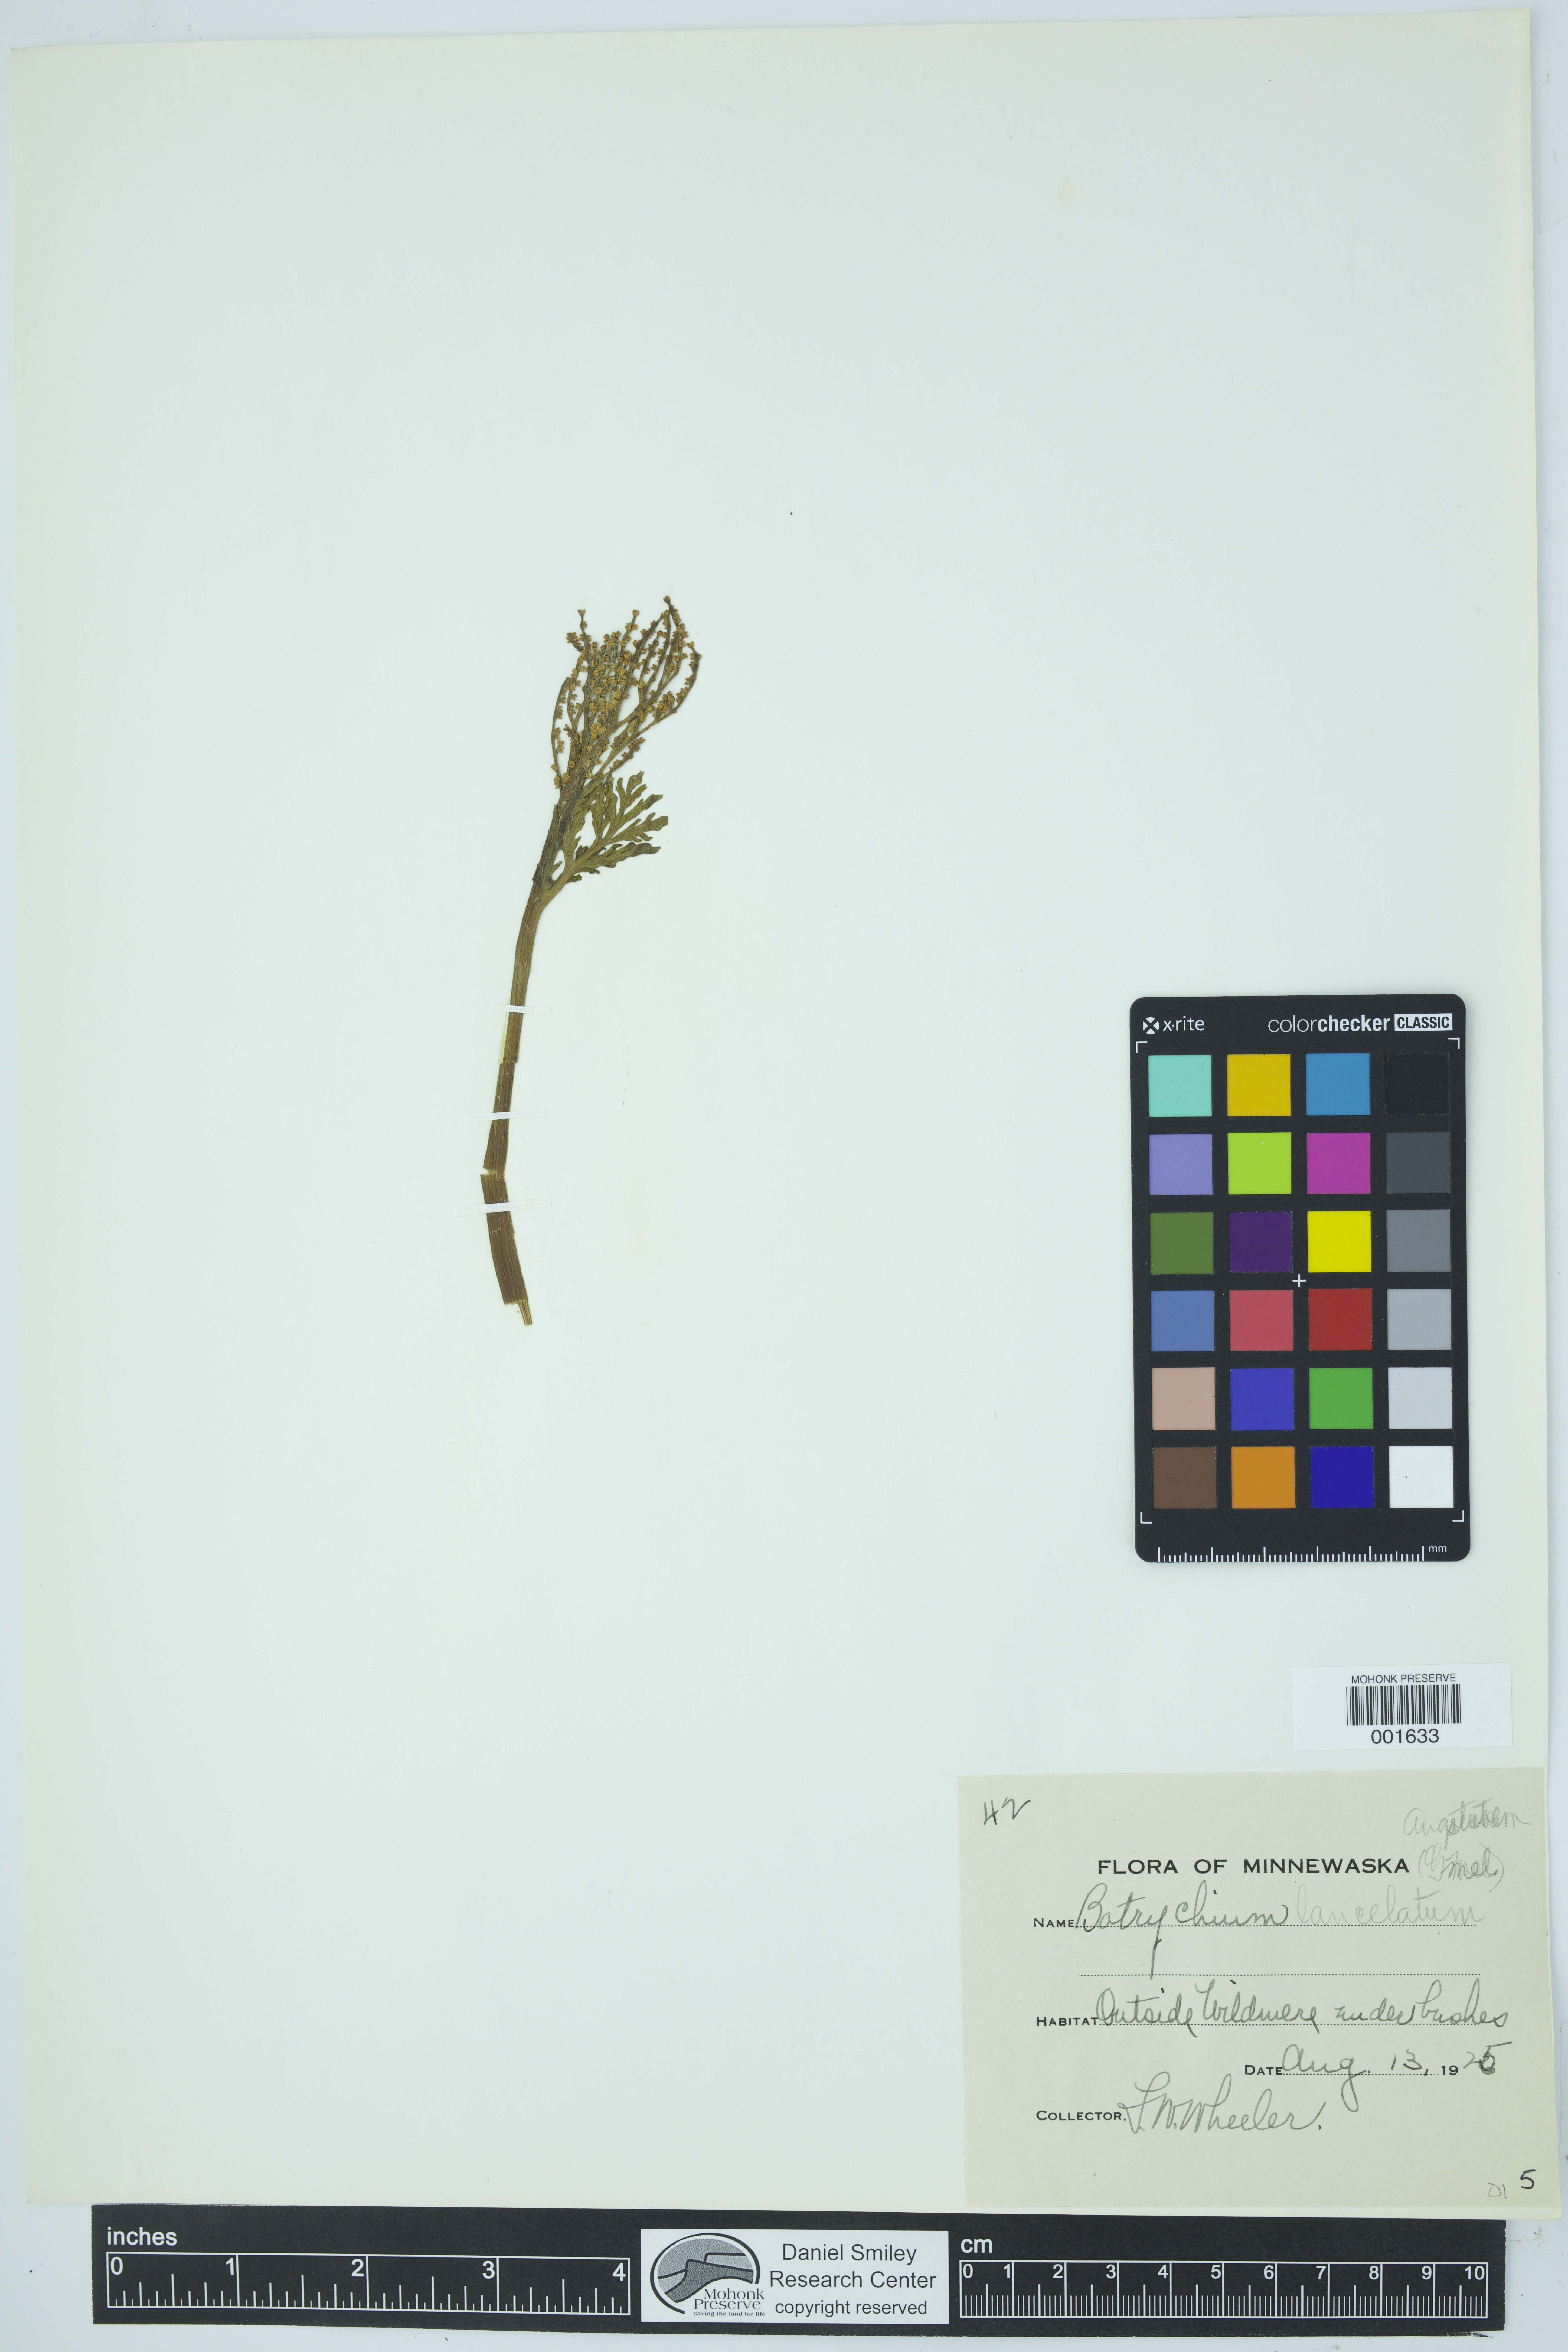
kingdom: Plantae
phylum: Tracheophyta
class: Polypodiopsida
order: Ophioglossales
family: Ophioglossaceae
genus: Botrychium
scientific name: Botrychium lanceolatum
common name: Lance-leaved moonwort
